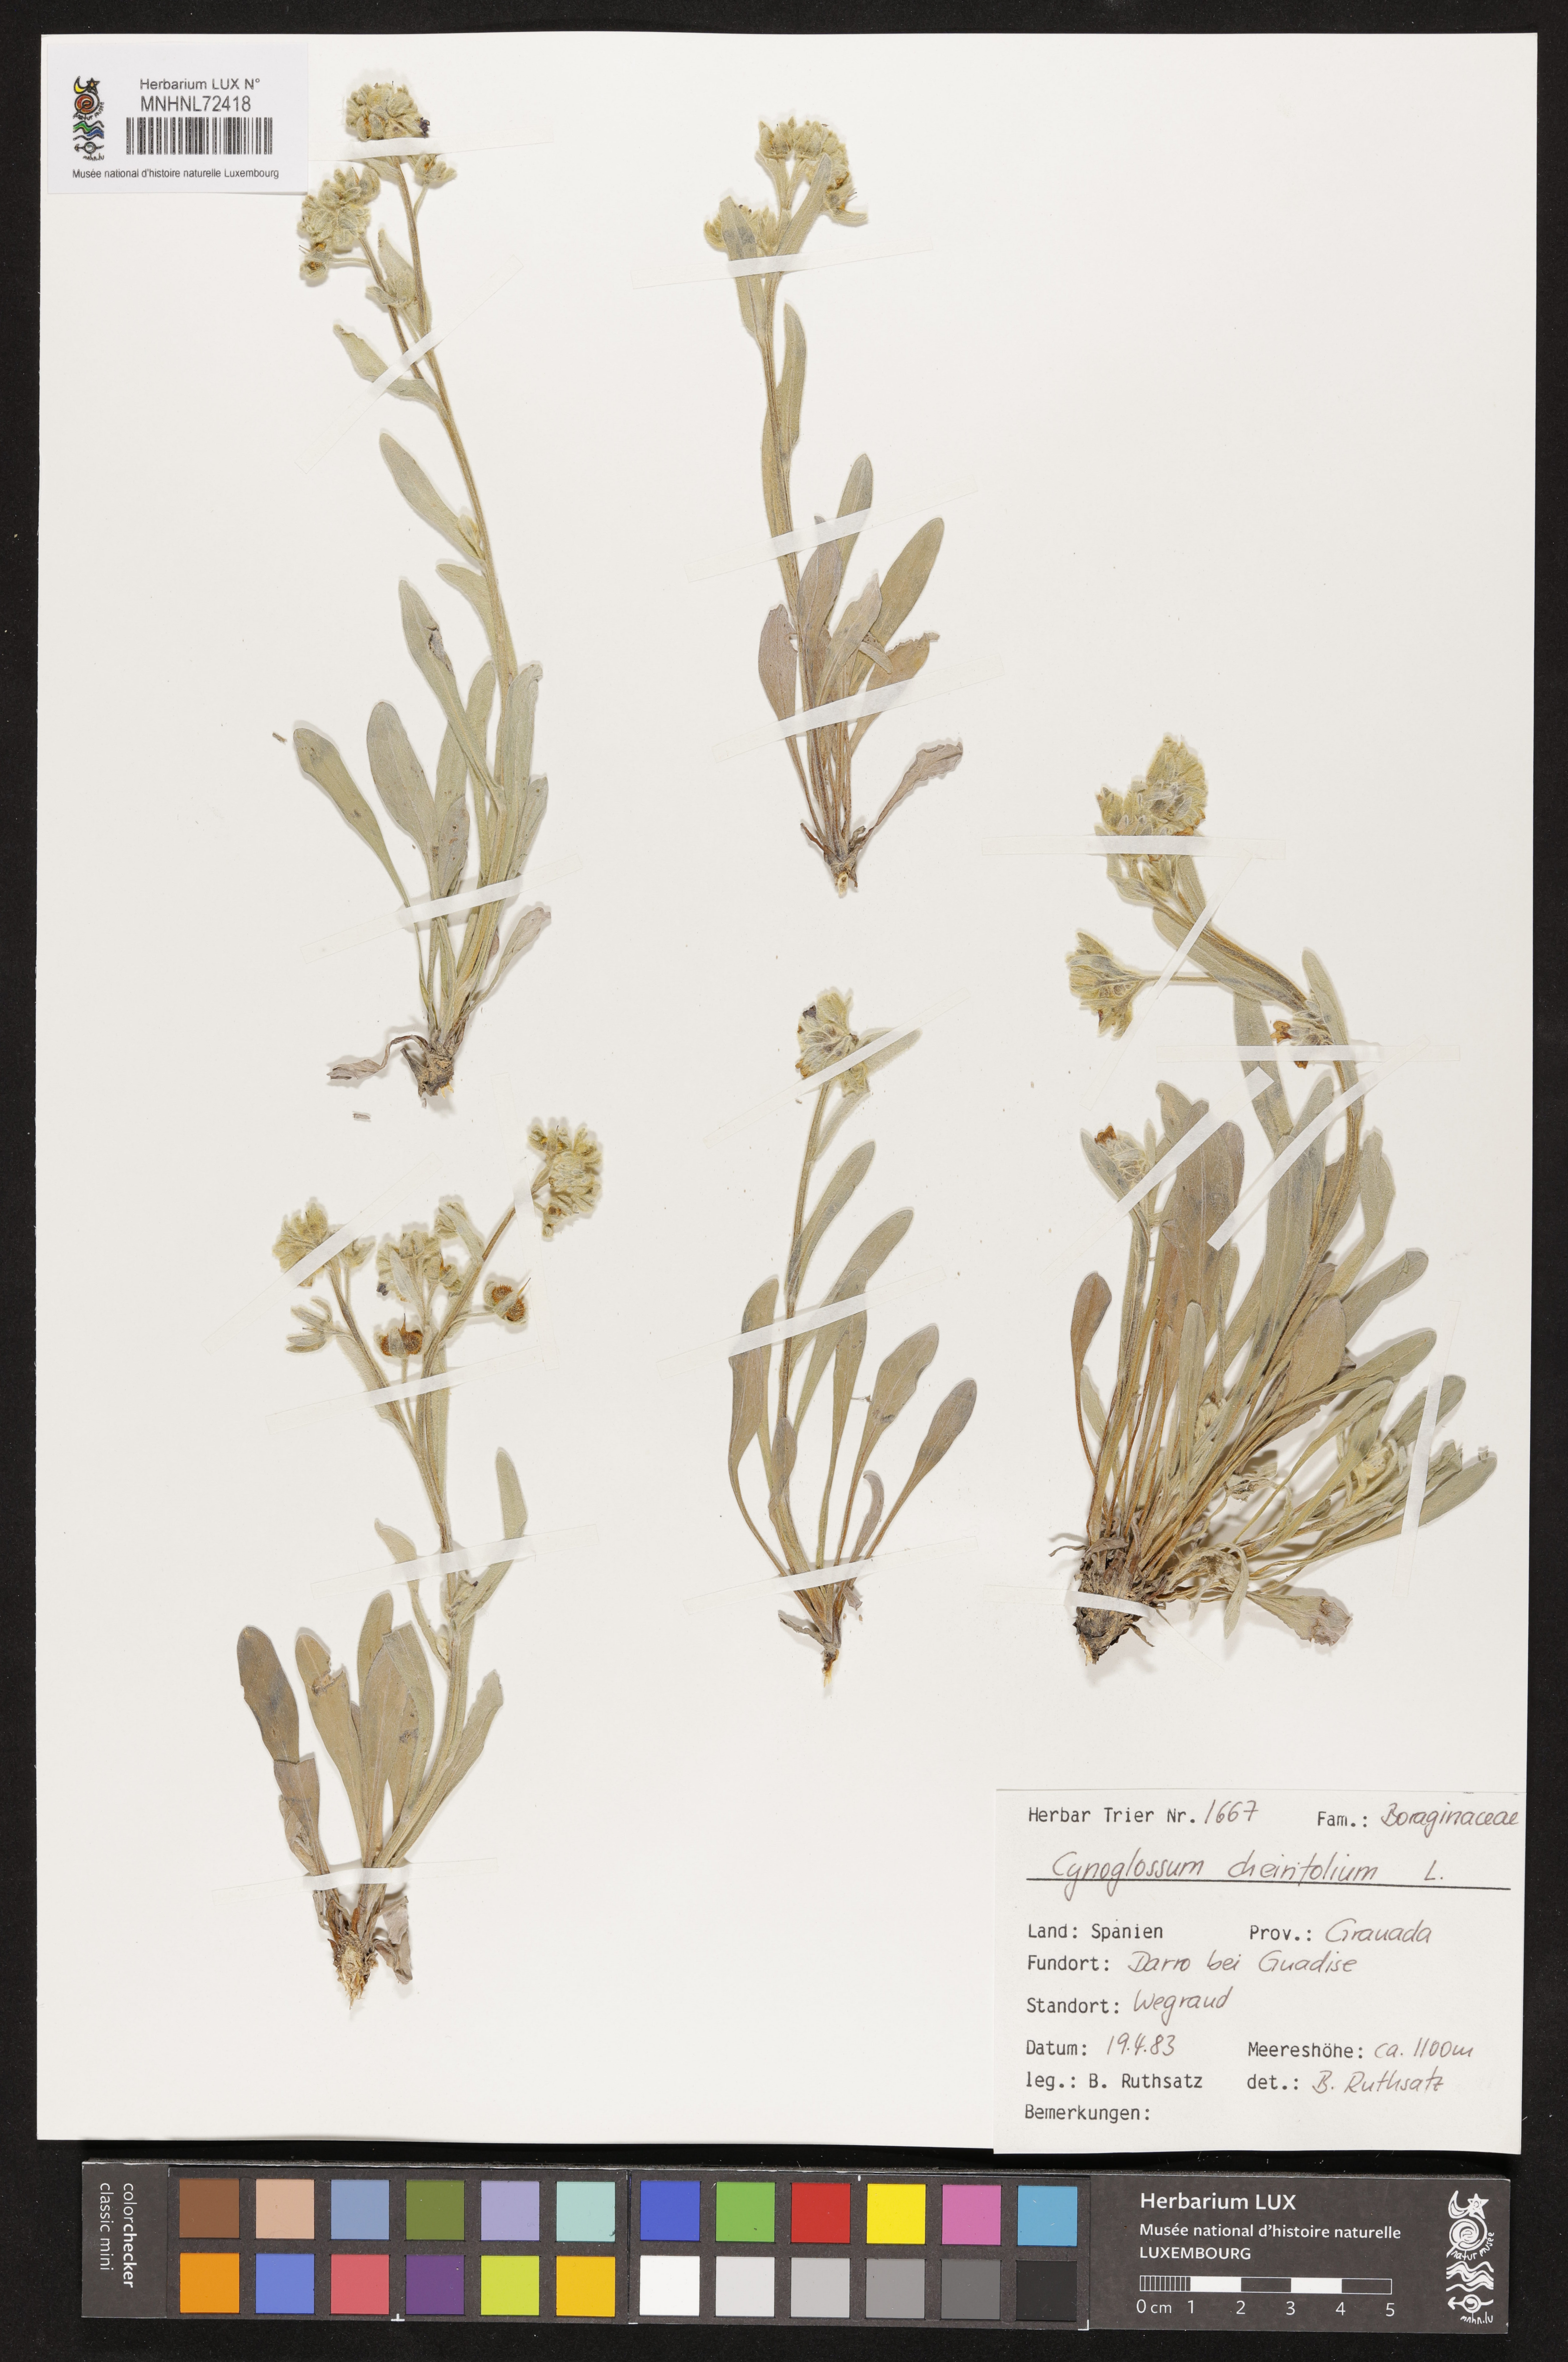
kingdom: Plantae
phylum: Tracheophyta
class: Magnoliopsida
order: Boraginales
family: Boraginaceae
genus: Pardoglossum
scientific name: Pardoglossum cheirifolium
